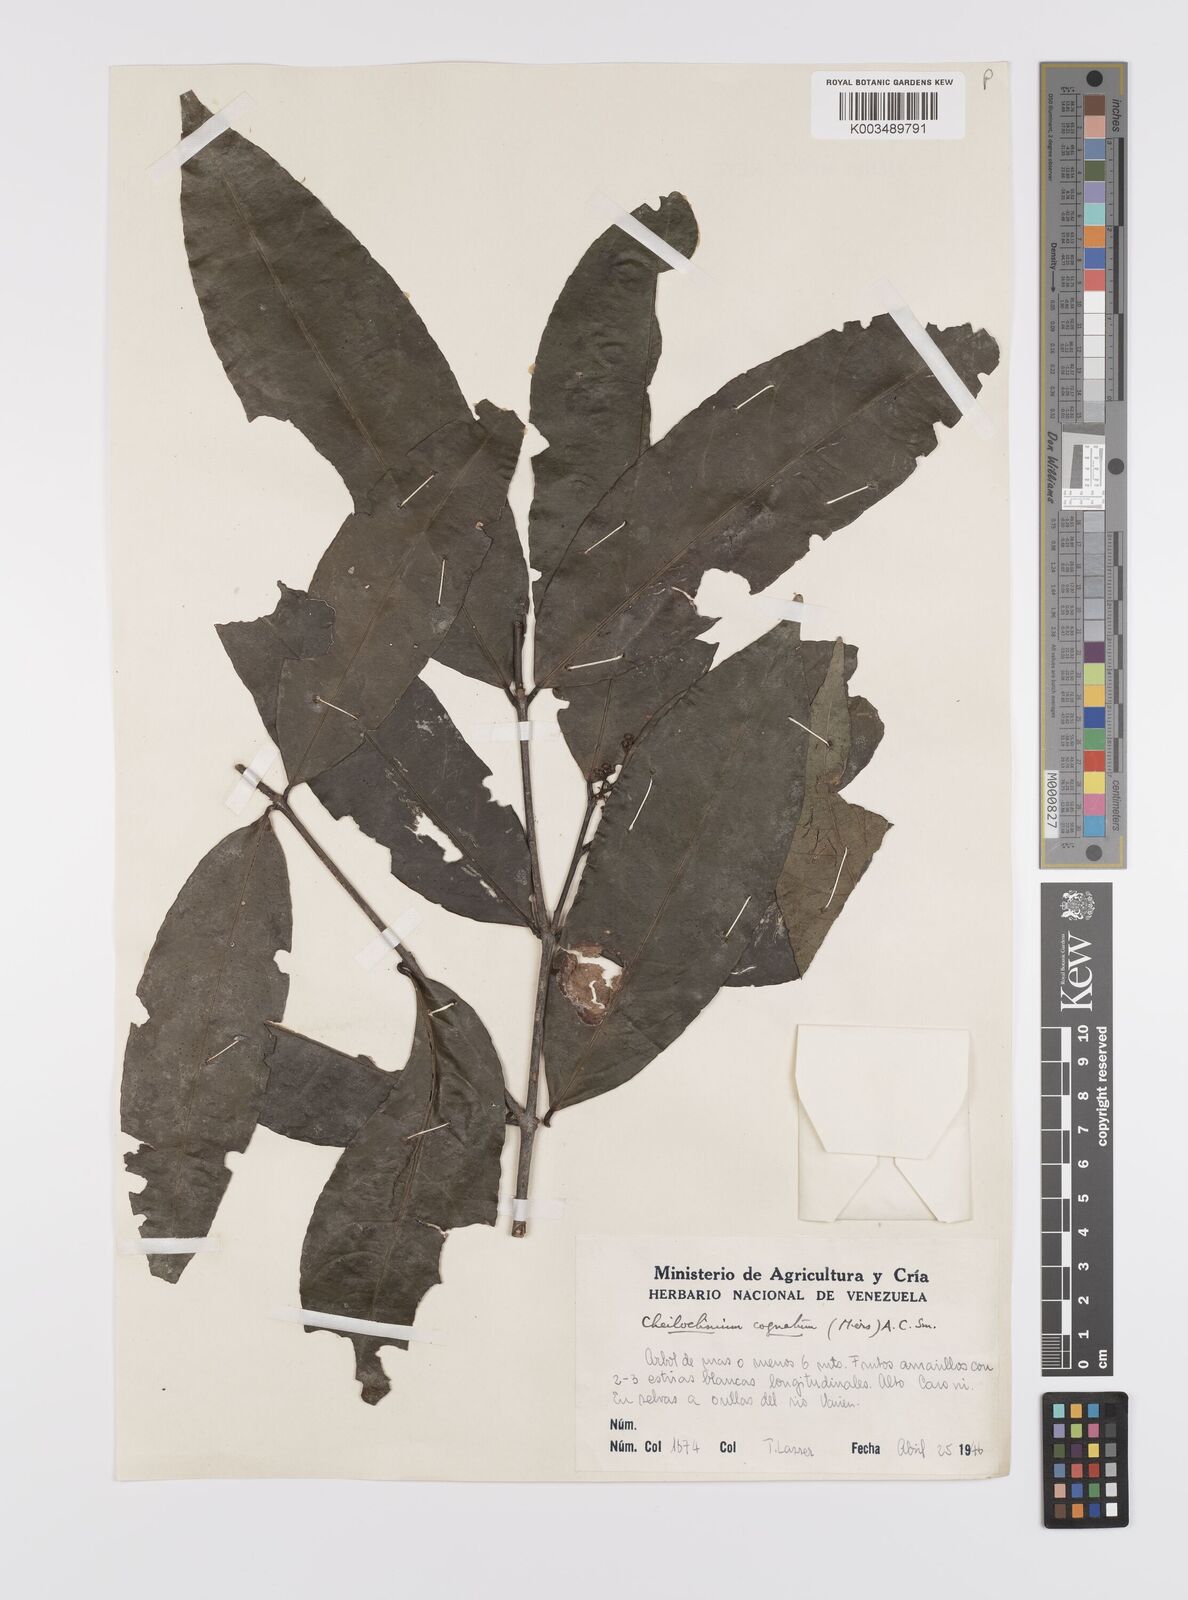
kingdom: Plantae
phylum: Tracheophyta
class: Magnoliopsida
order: Celastrales
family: Celastraceae
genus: Cheiloclinium
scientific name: Cheiloclinium cognatum
